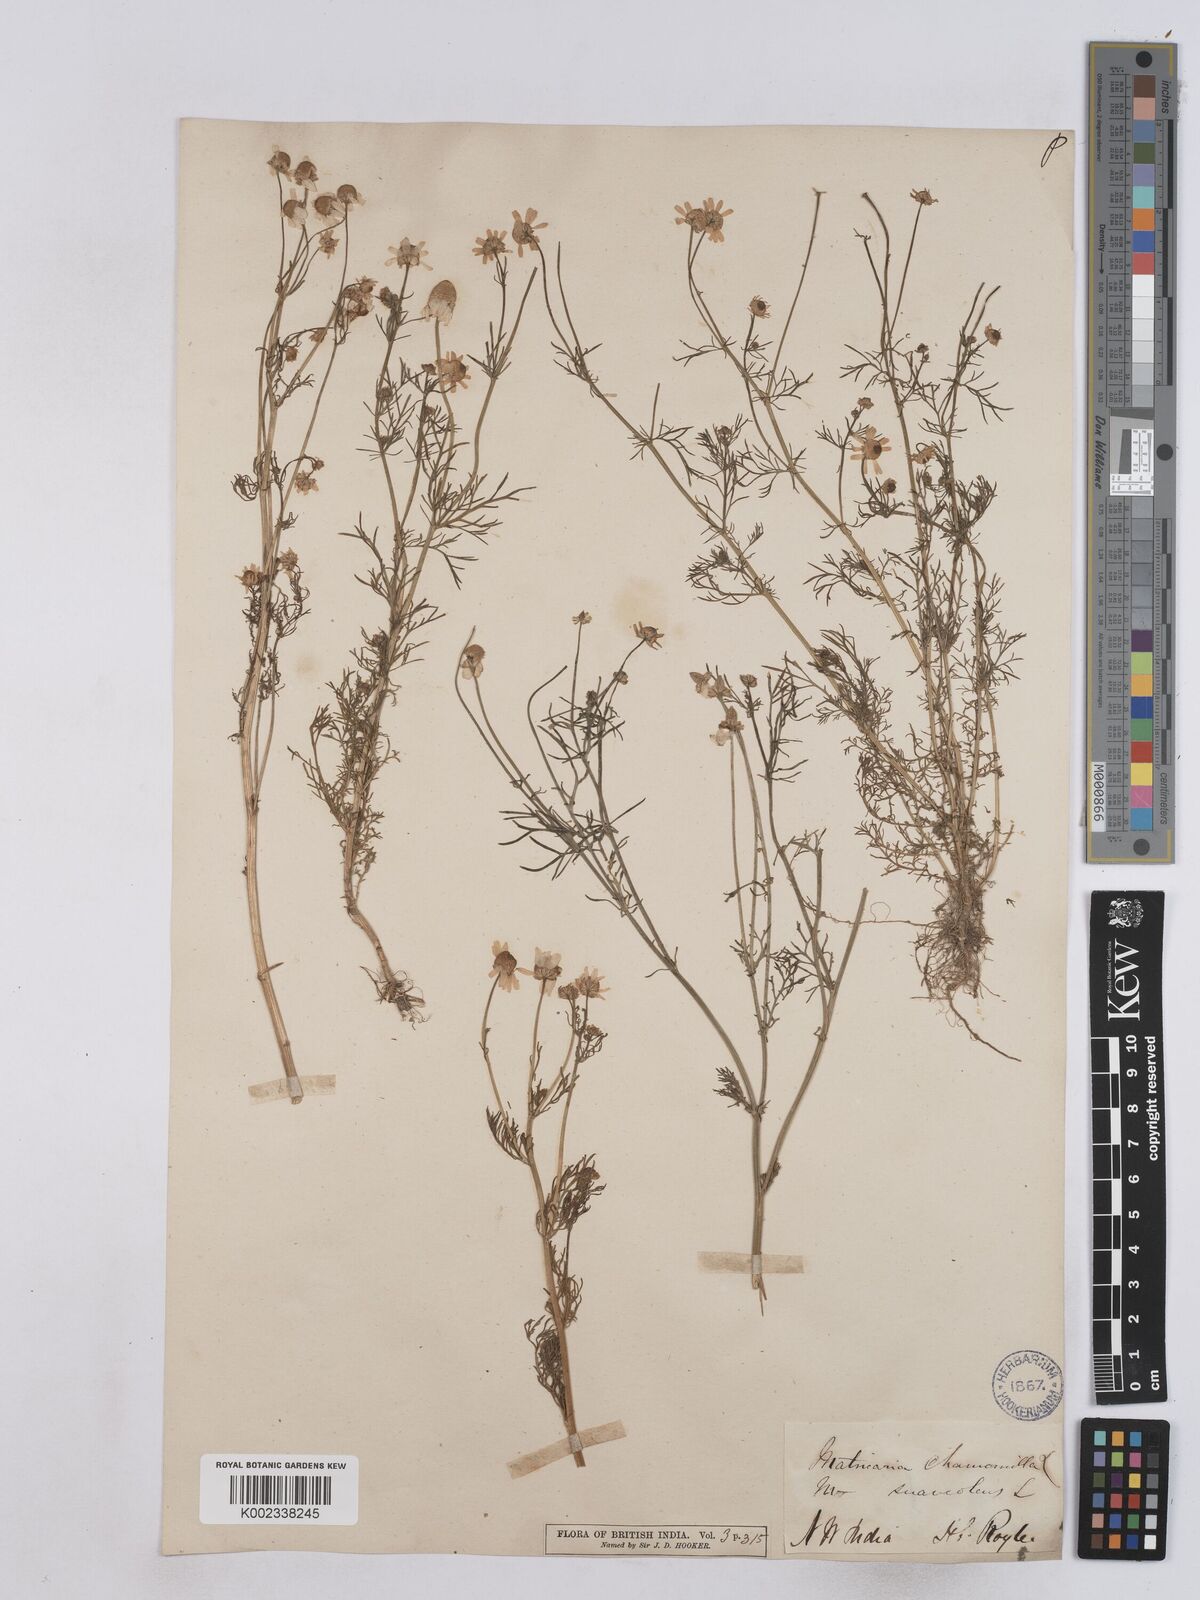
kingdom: Plantae
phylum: Tracheophyta
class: Magnoliopsida
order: Asterales
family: Asteraceae
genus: Matricaria
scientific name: Matricaria chamomilla
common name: Scented mayweed
